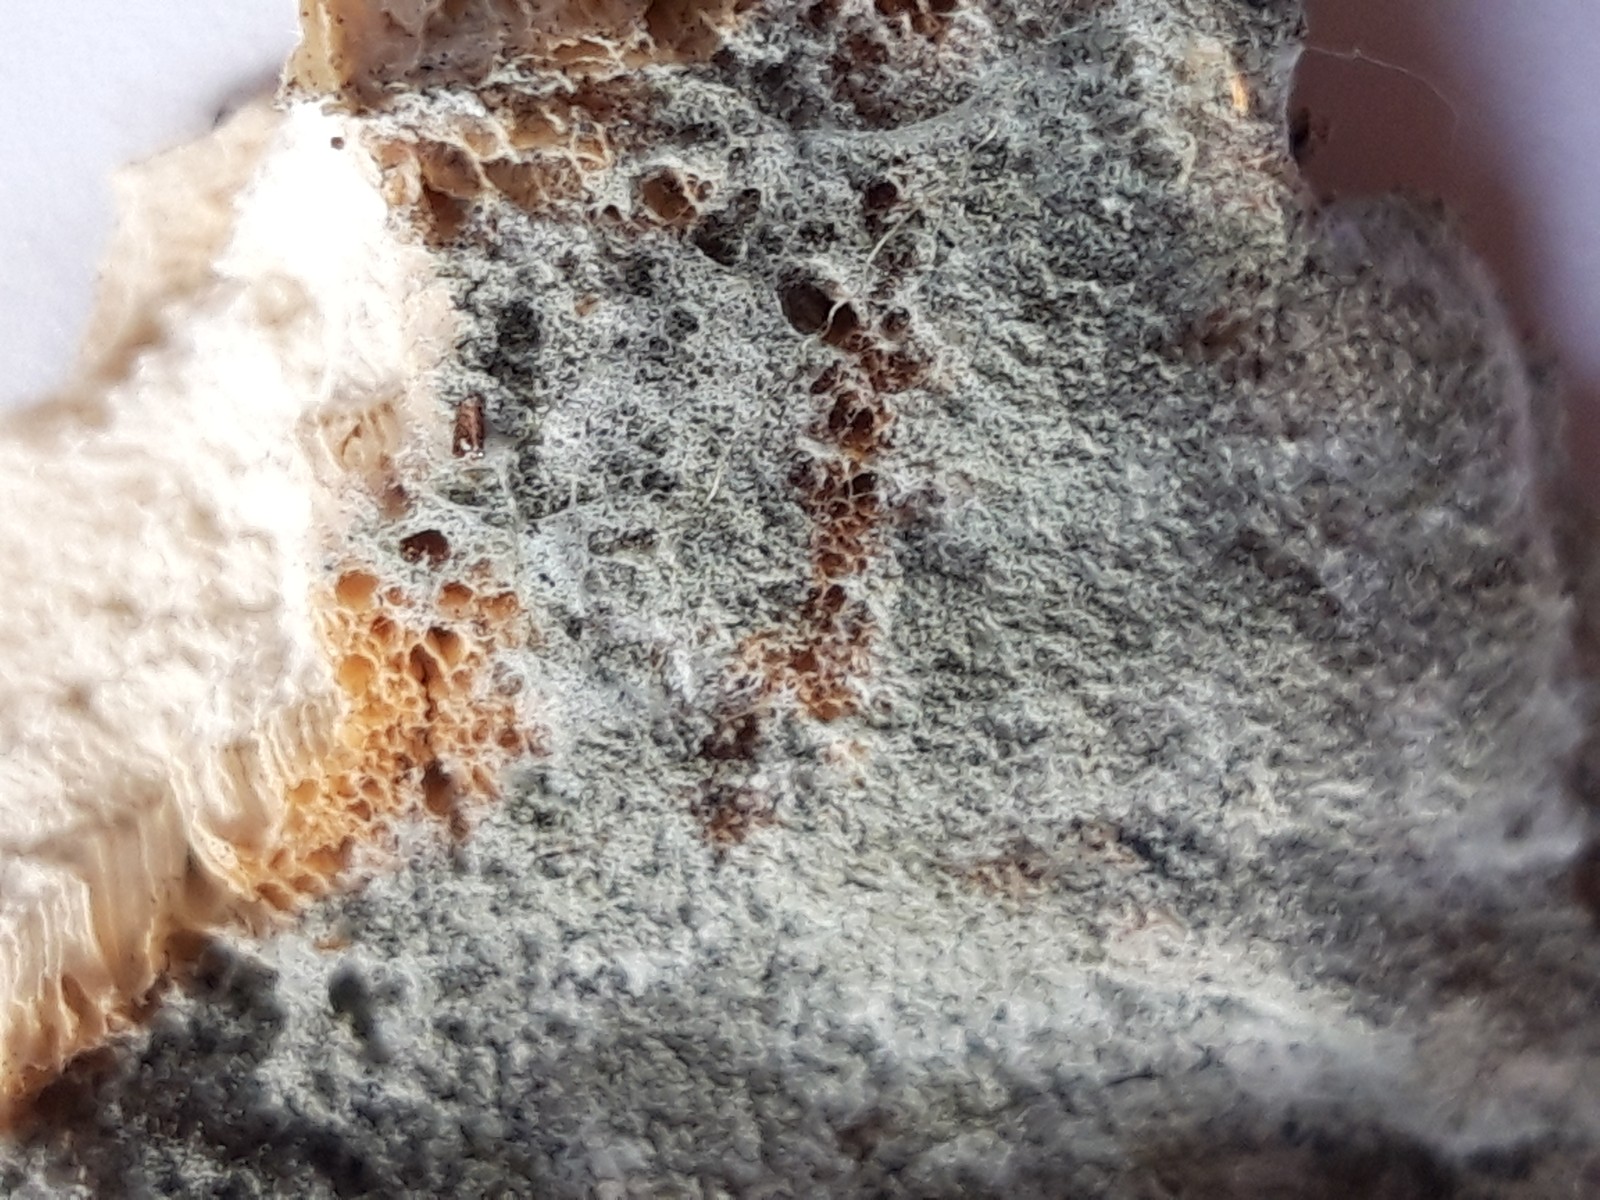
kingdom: Fungi
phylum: Basidiomycota
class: Agaricomycetes
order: Polyporales
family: Laetiporaceae
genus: Laetiporus
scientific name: Laetiporus sulphureus
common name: svovlporesvamp
